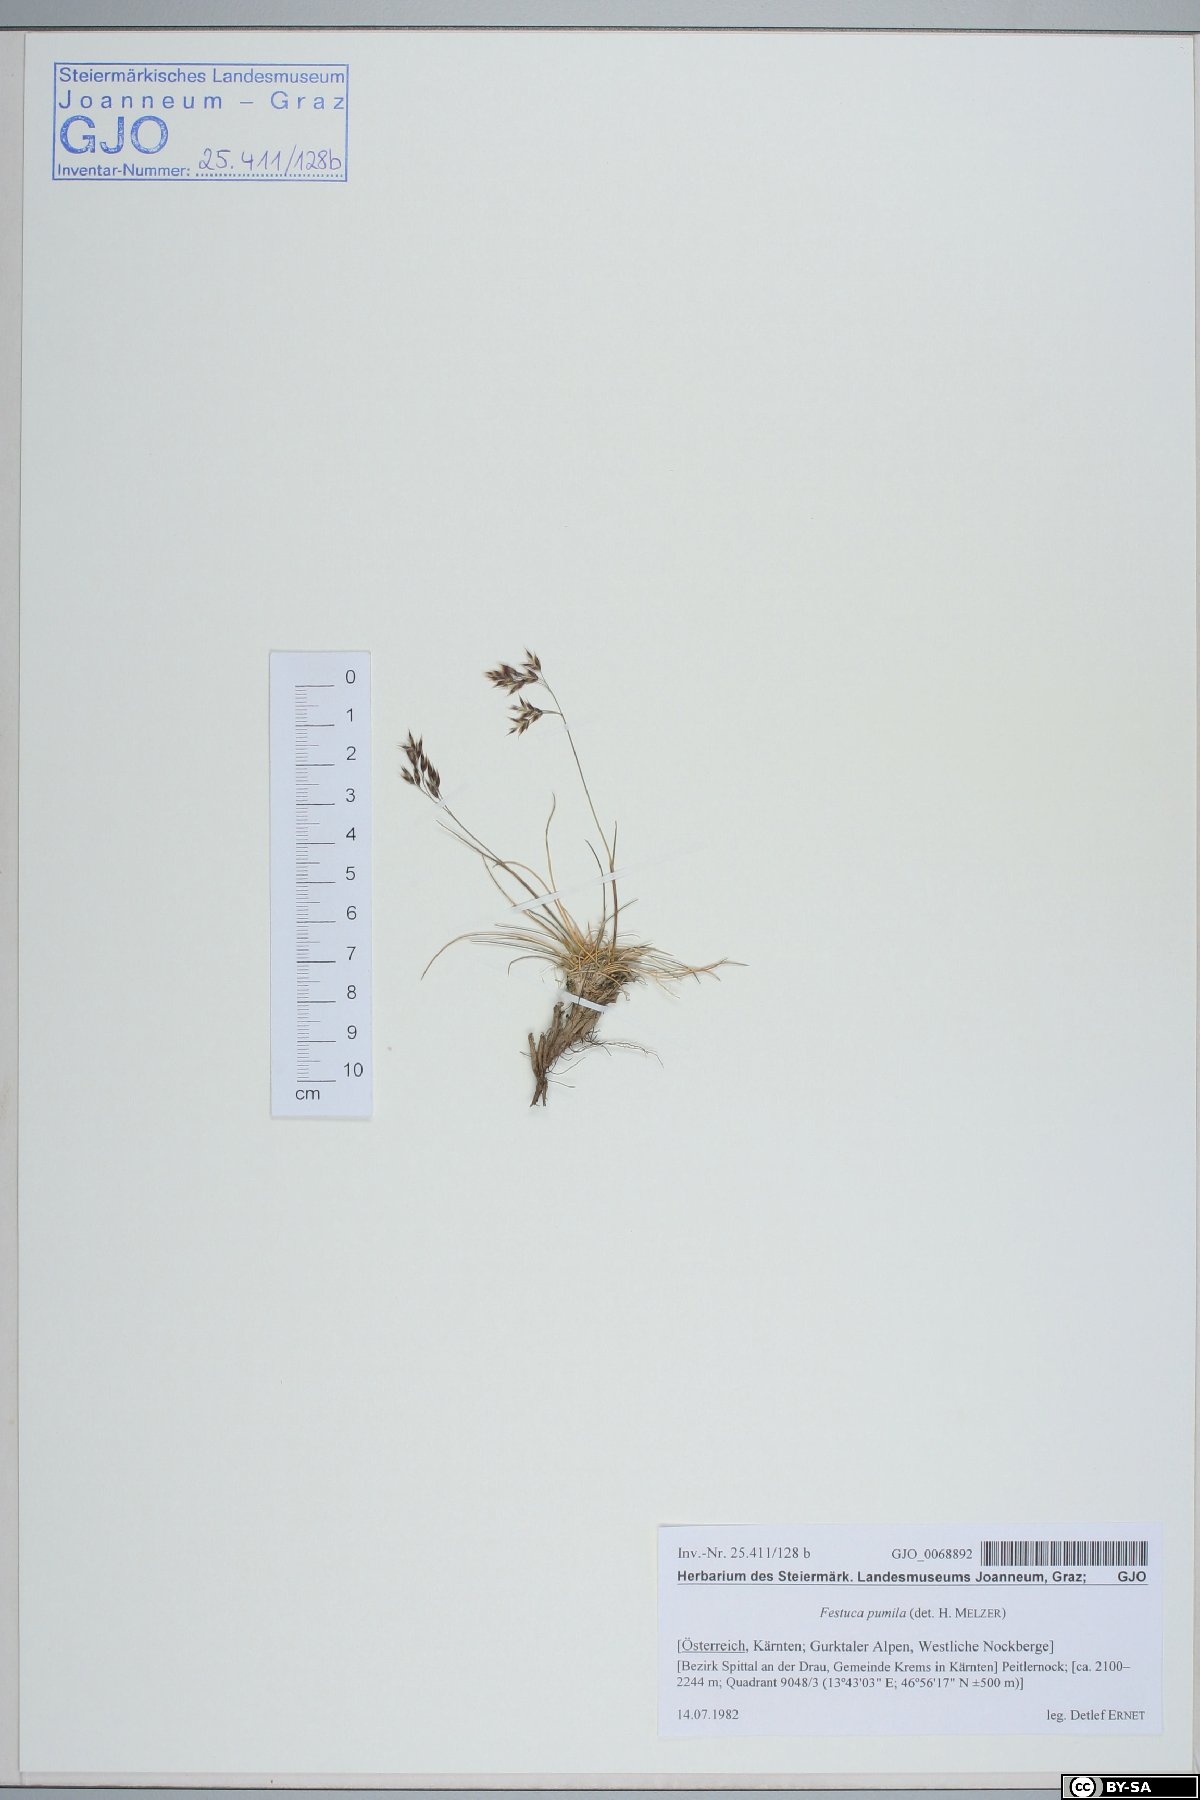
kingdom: Plantae
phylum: Tracheophyta
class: Liliopsida
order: Poales
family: Poaceae
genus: Festuca
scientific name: Festuca quadriflora
